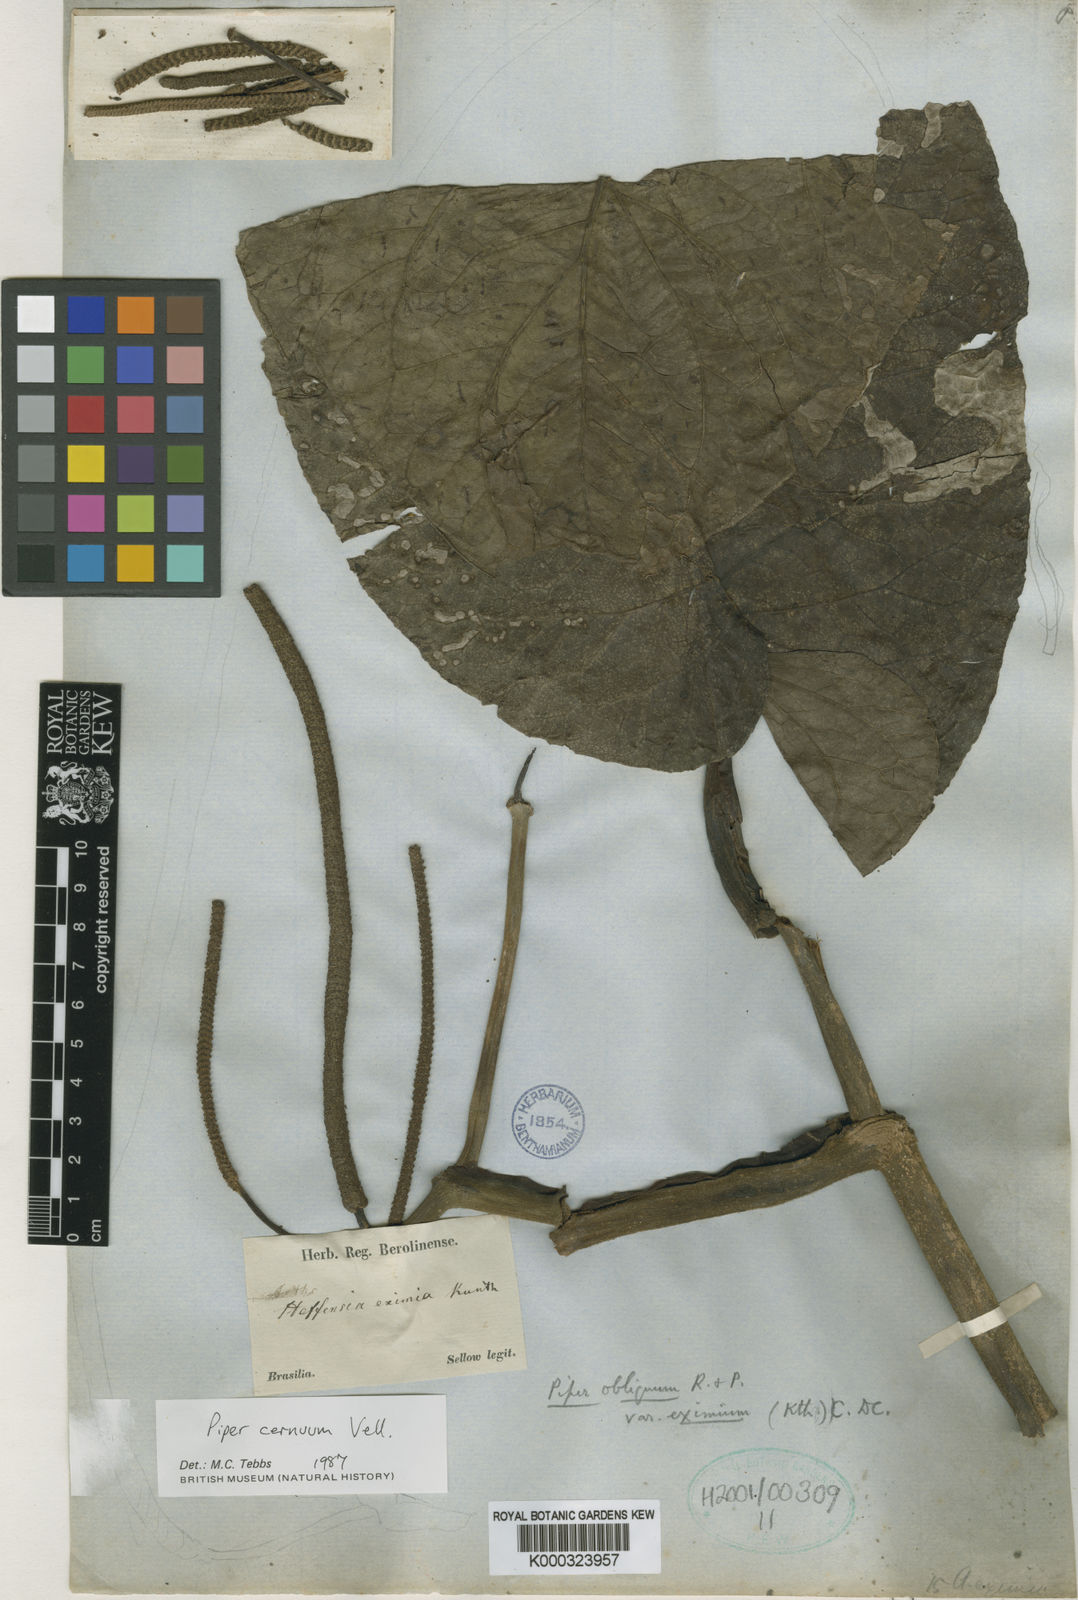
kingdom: Plantae
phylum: Tracheophyta
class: Magnoliopsida
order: Piperales
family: Piperaceae
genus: Piper
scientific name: Piper cernuum
